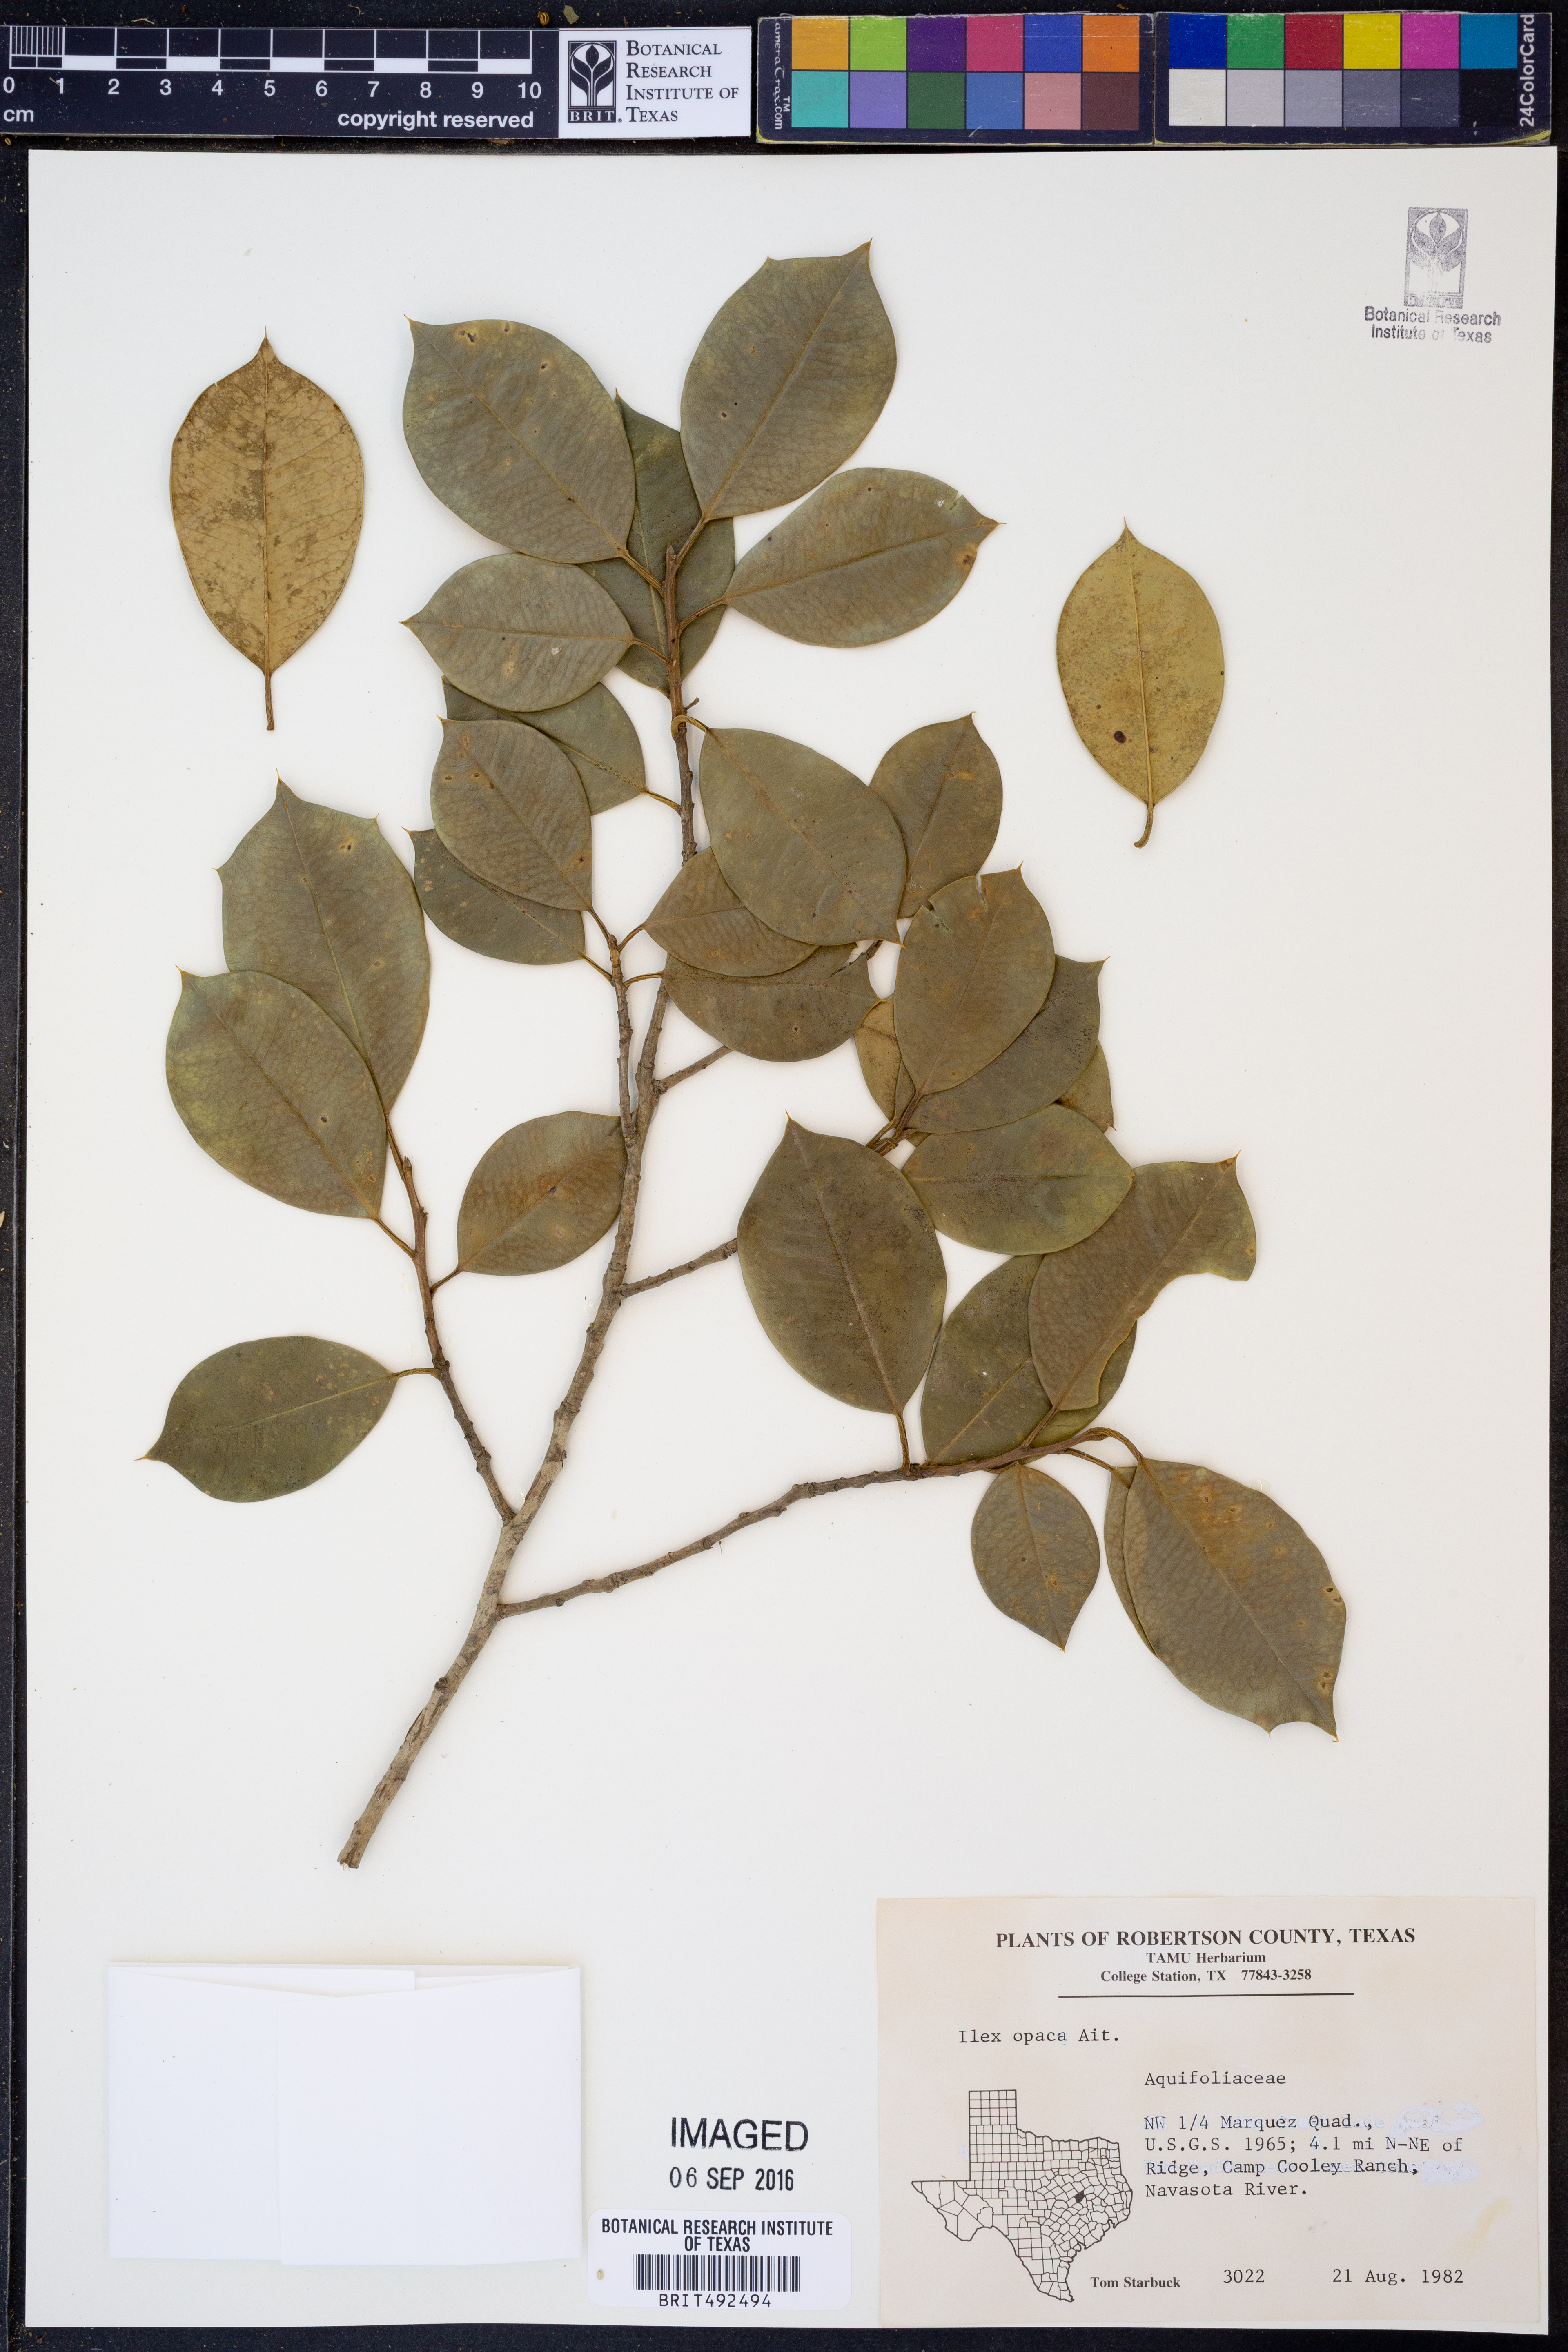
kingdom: Plantae
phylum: Tracheophyta
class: Magnoliopsida
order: Aquifoliales
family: Aquifoliaceae
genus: Ilex
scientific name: Ilex opaca
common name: American holly
